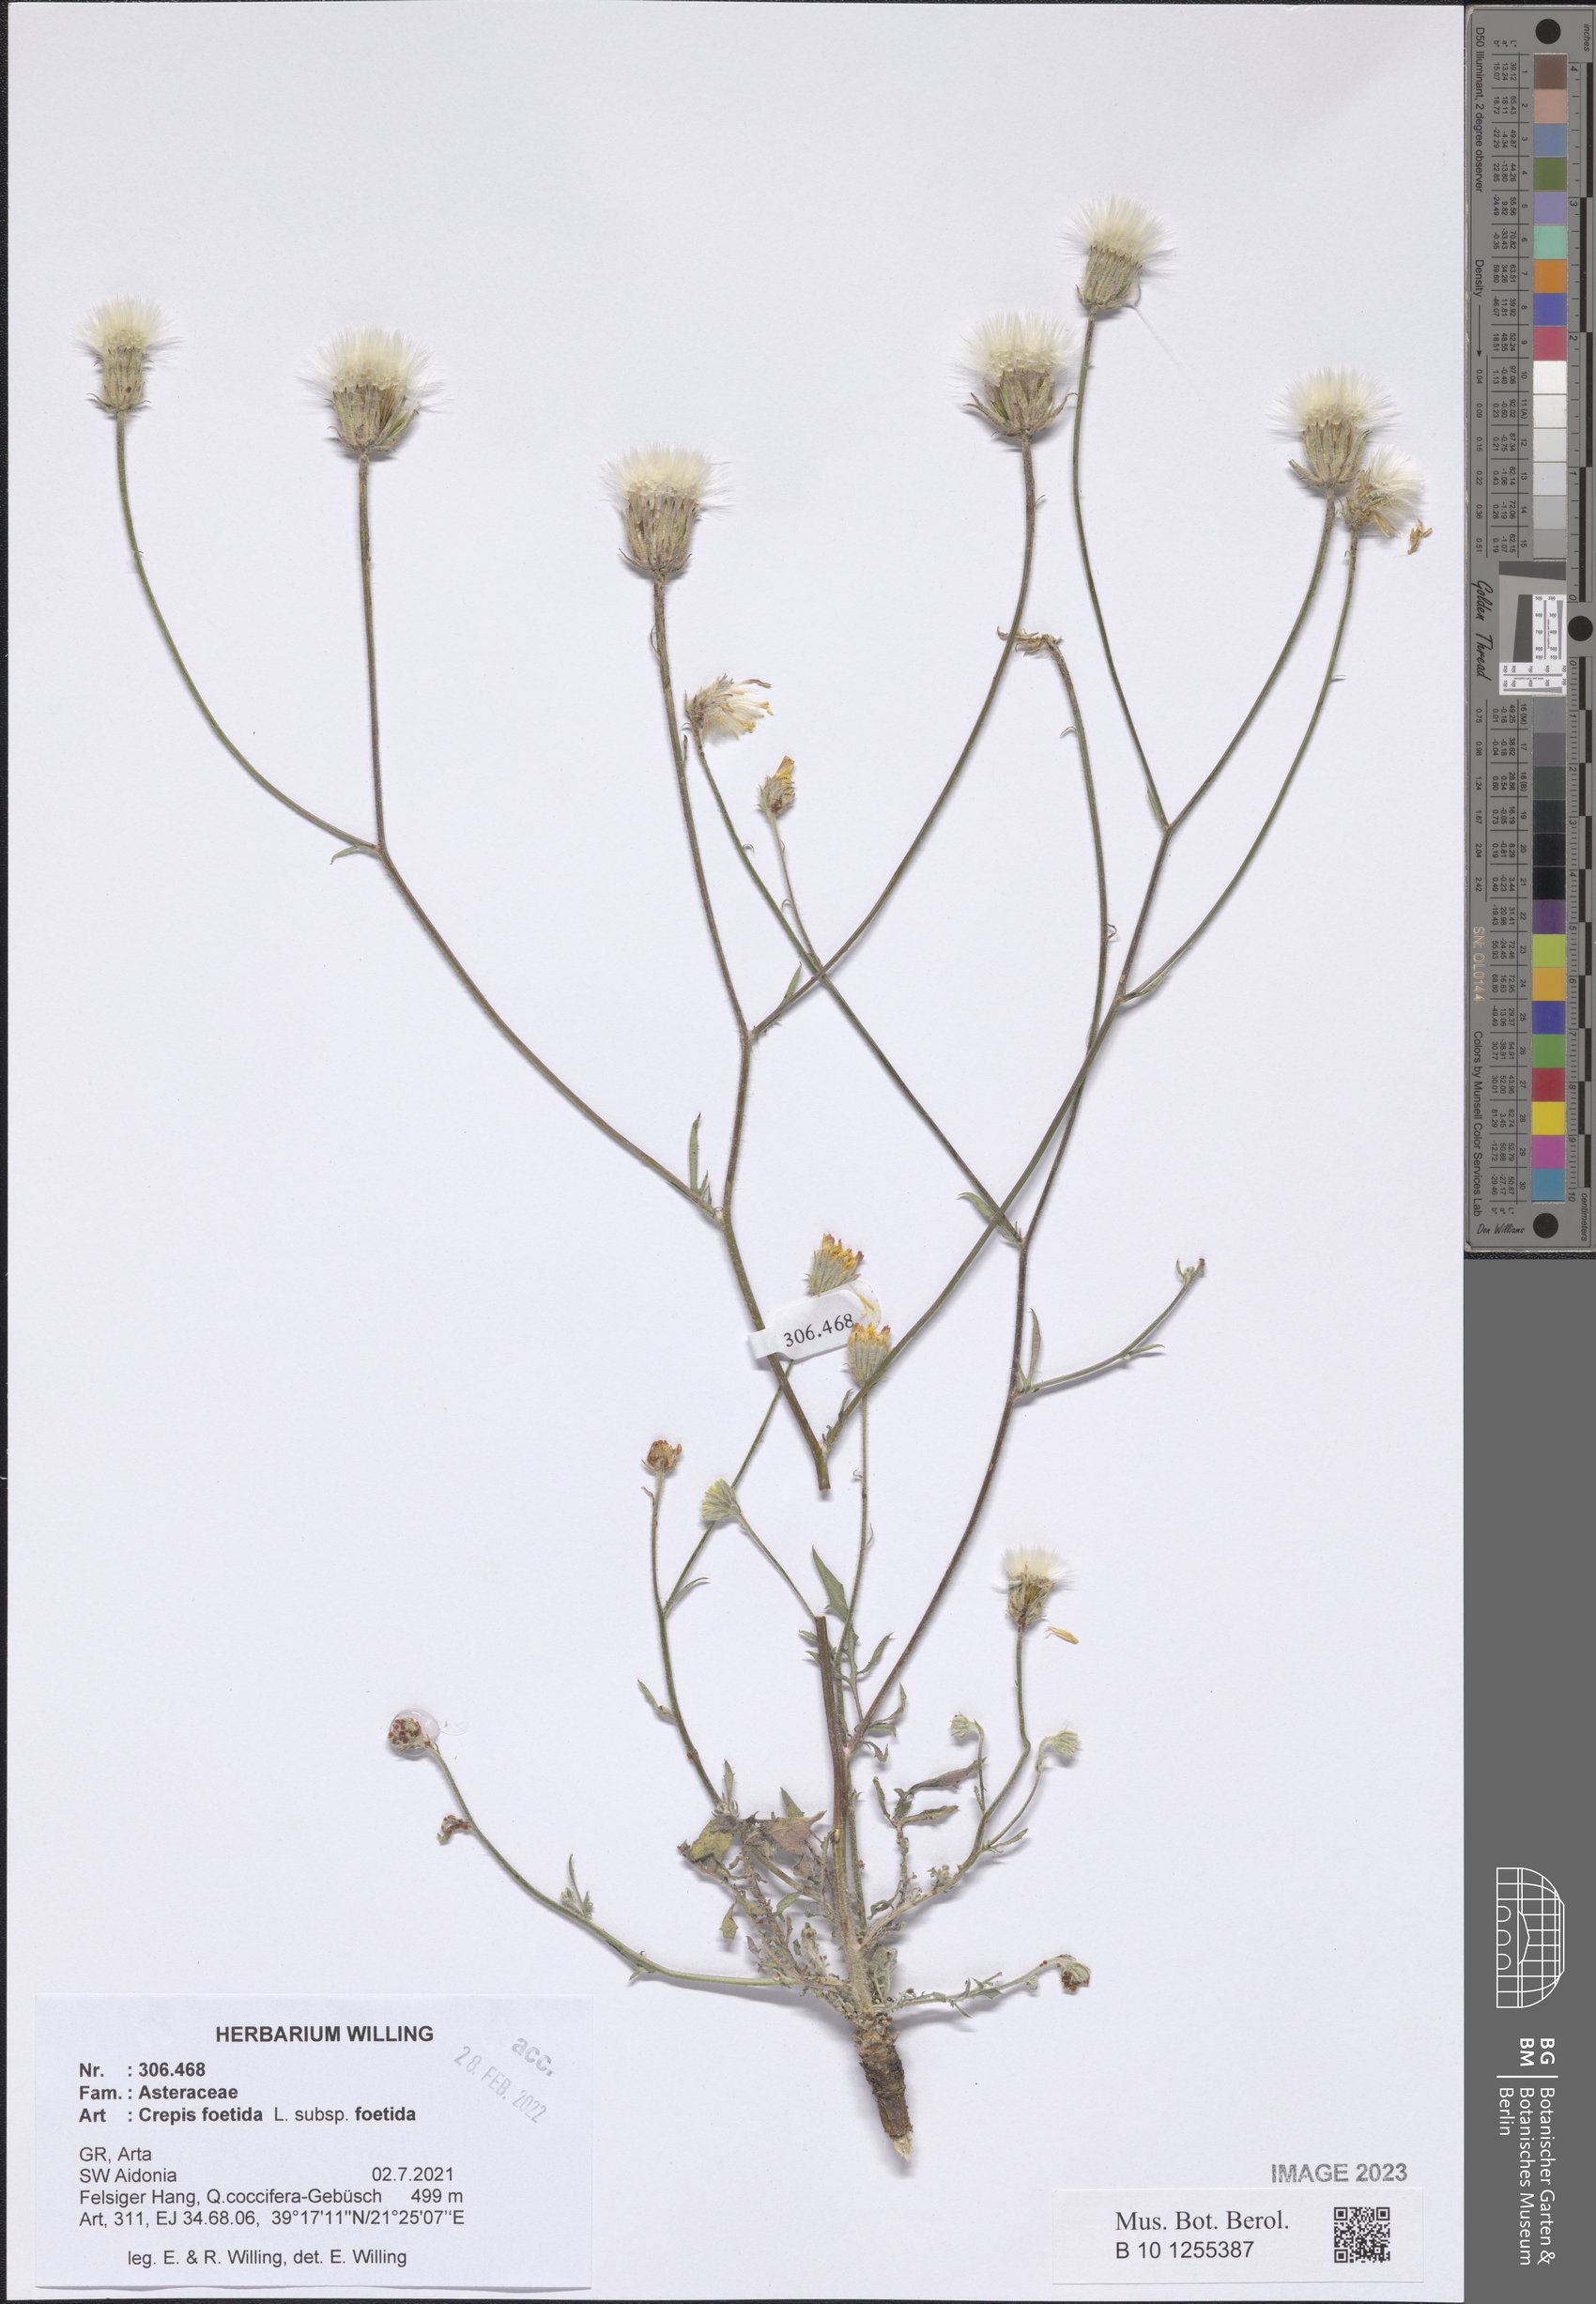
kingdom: Plantae
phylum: Tracheophyta
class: Magnoliopsida
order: Asterales
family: Asteraceae
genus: Crepis
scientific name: Crepis foetida
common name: Stinking hawk's-beard
